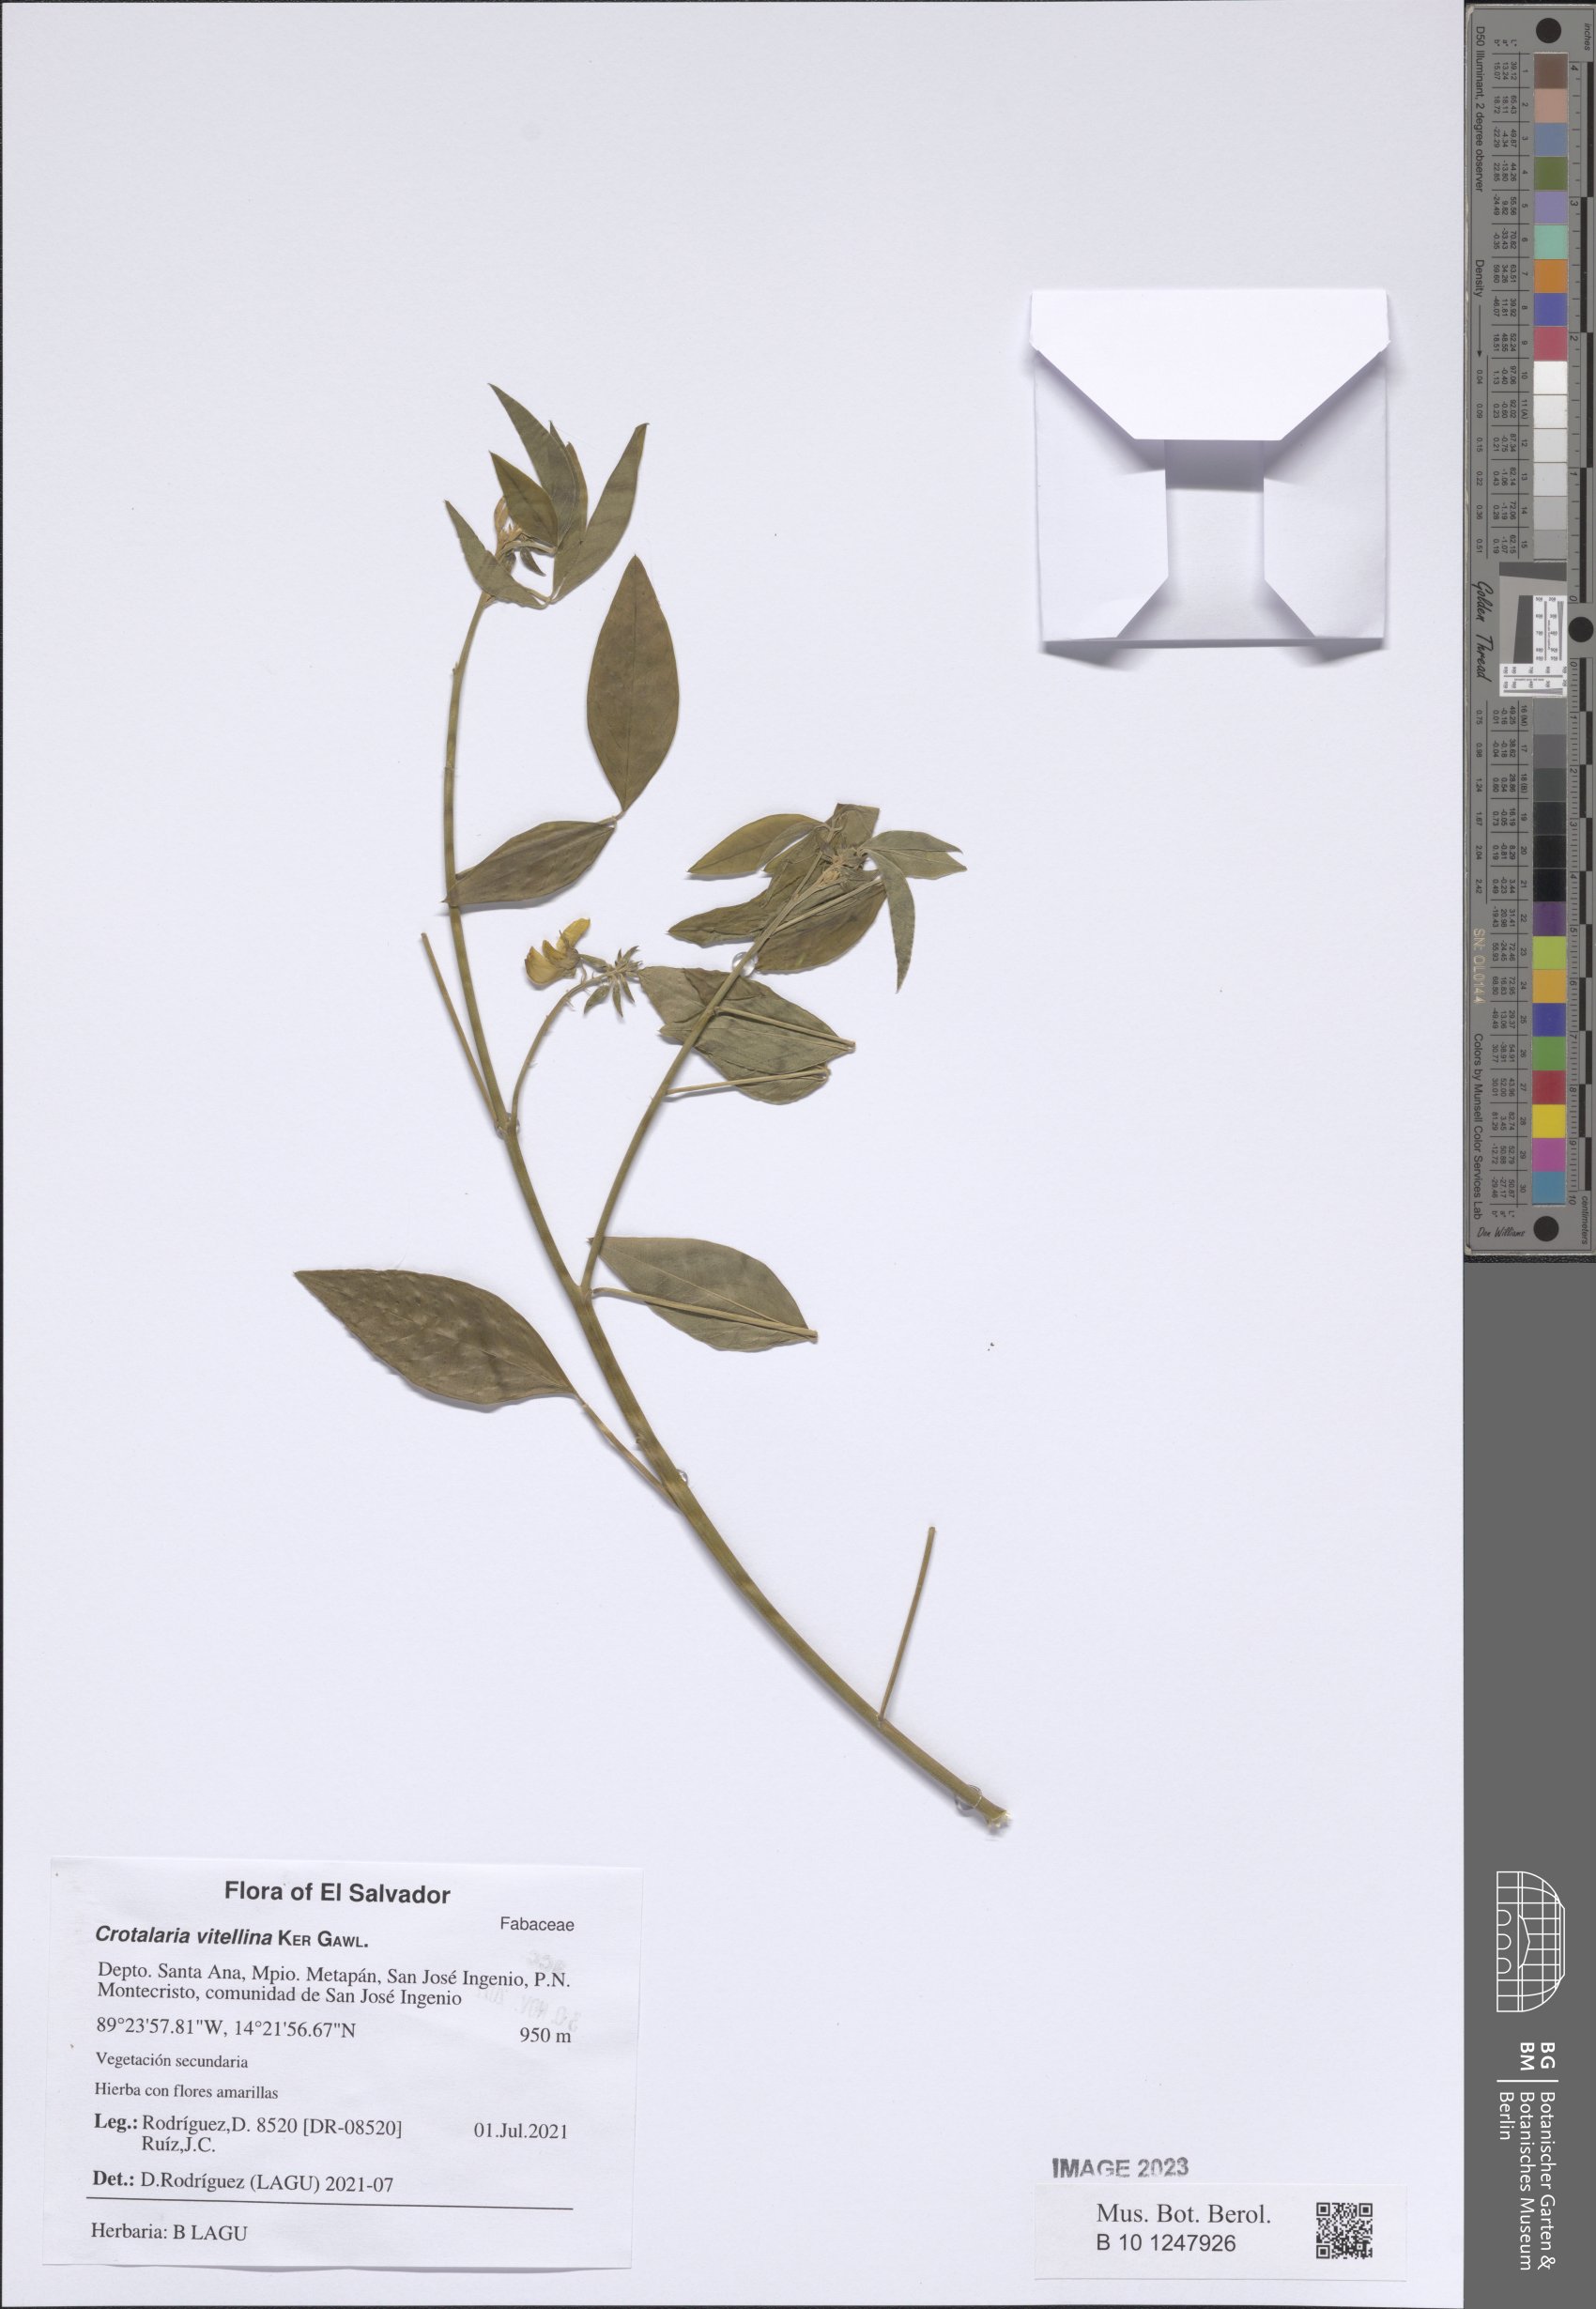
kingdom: Plantae
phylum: Tracheophyta
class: Magnoliopsida
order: Fabales
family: Fabaceae
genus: Crotalaria
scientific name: Crotalaria vitellina
